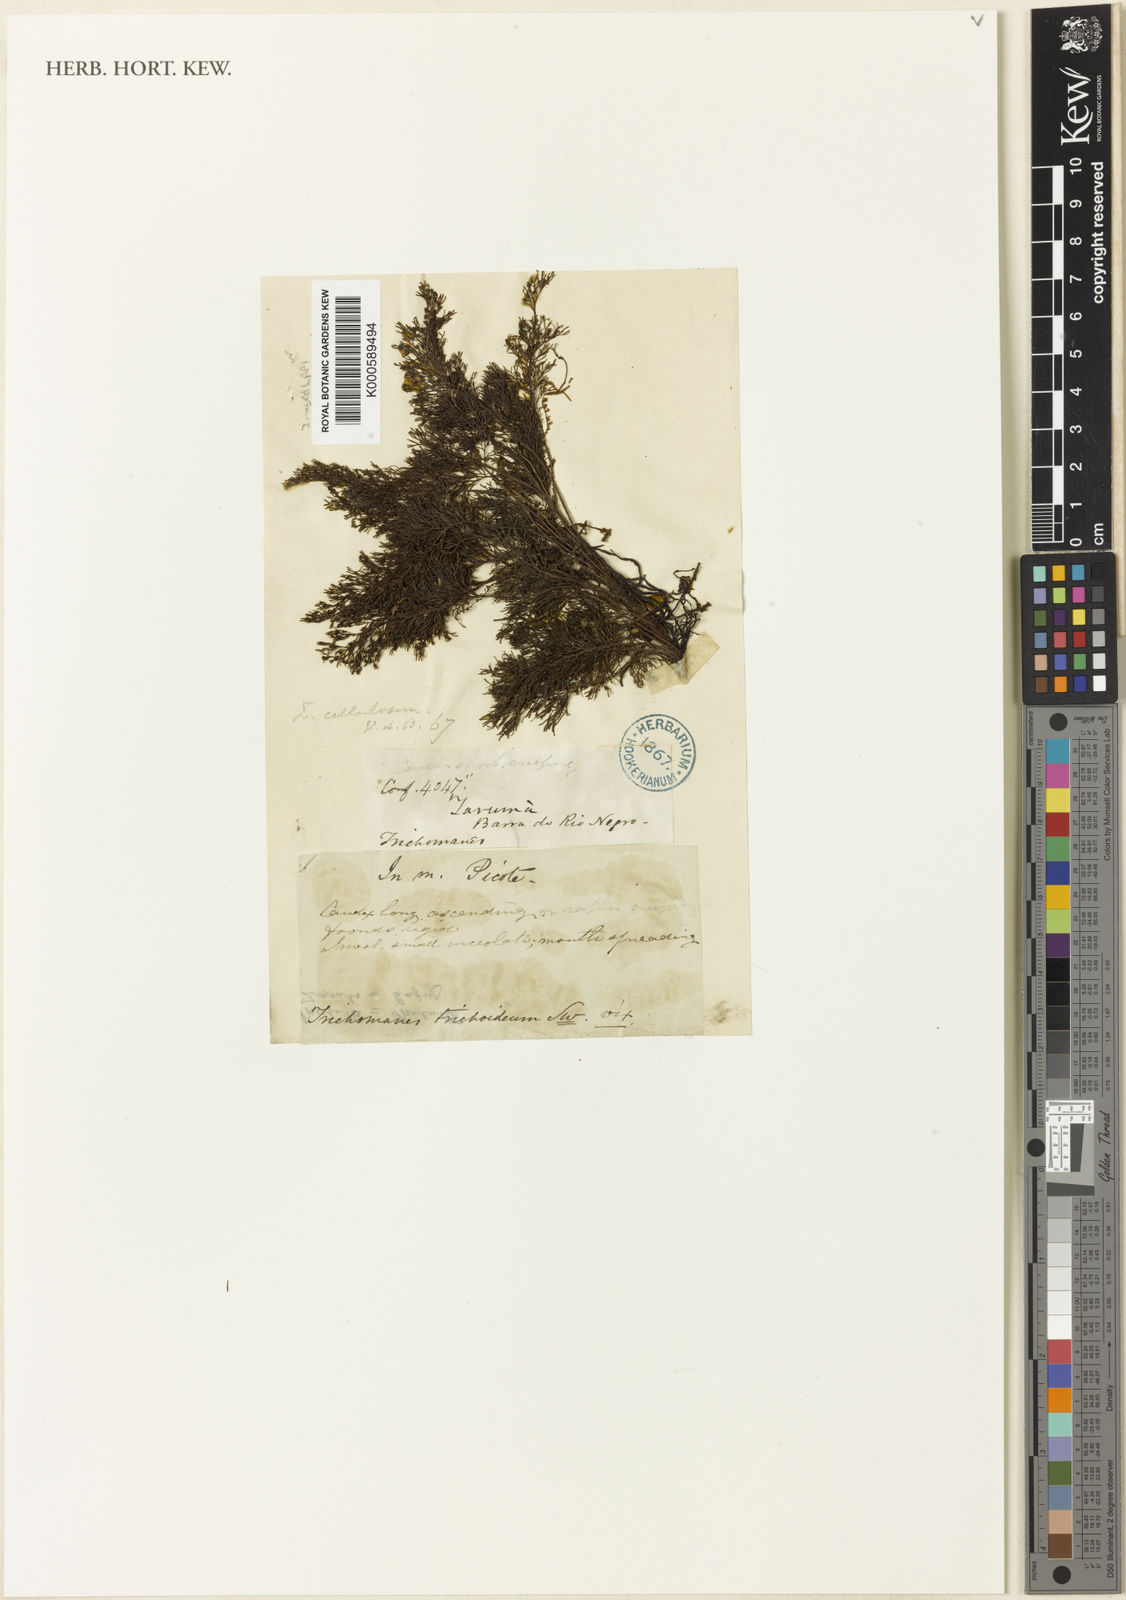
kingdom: Plantae
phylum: Tracheophyta
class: Polypodiopsida
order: Hymenophyllales
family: Hymenophyllaceae
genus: Abrodictyum
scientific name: Abrodictyum cellulosum
